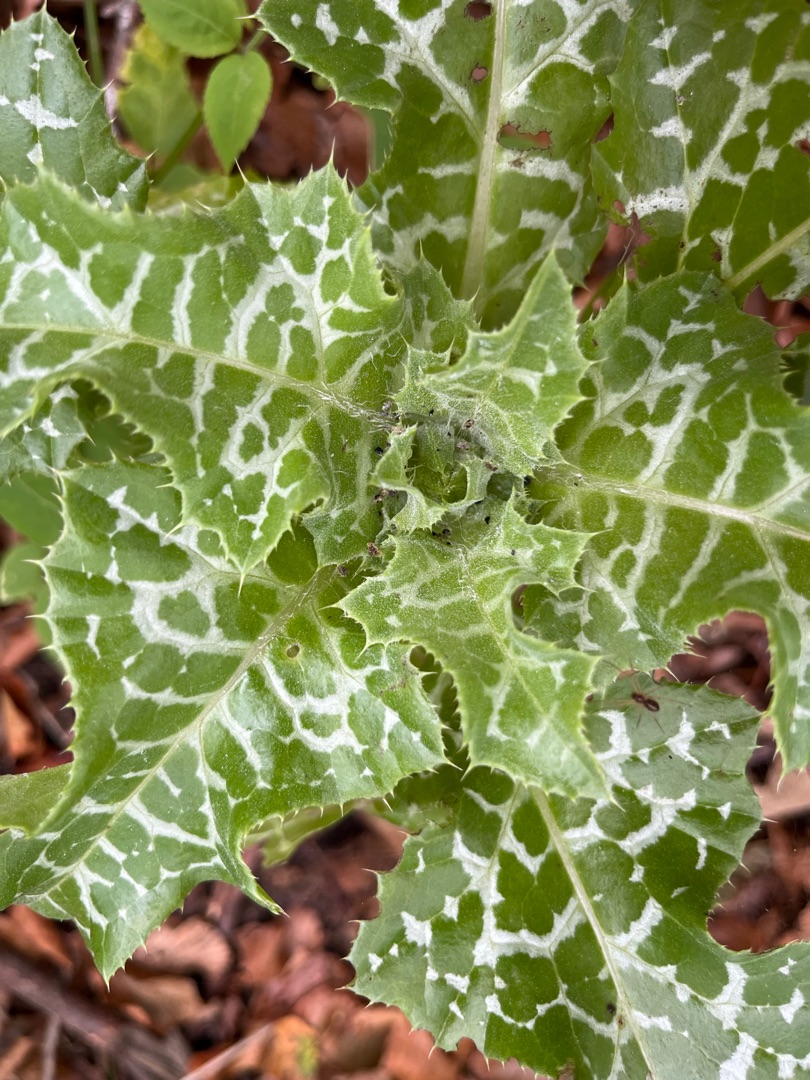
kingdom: Plantae
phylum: Tracheophyta
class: Magnoliopsida
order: Asterales
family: Asteraceae
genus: Silybum
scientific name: Silybum marianum
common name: Marietidsel
